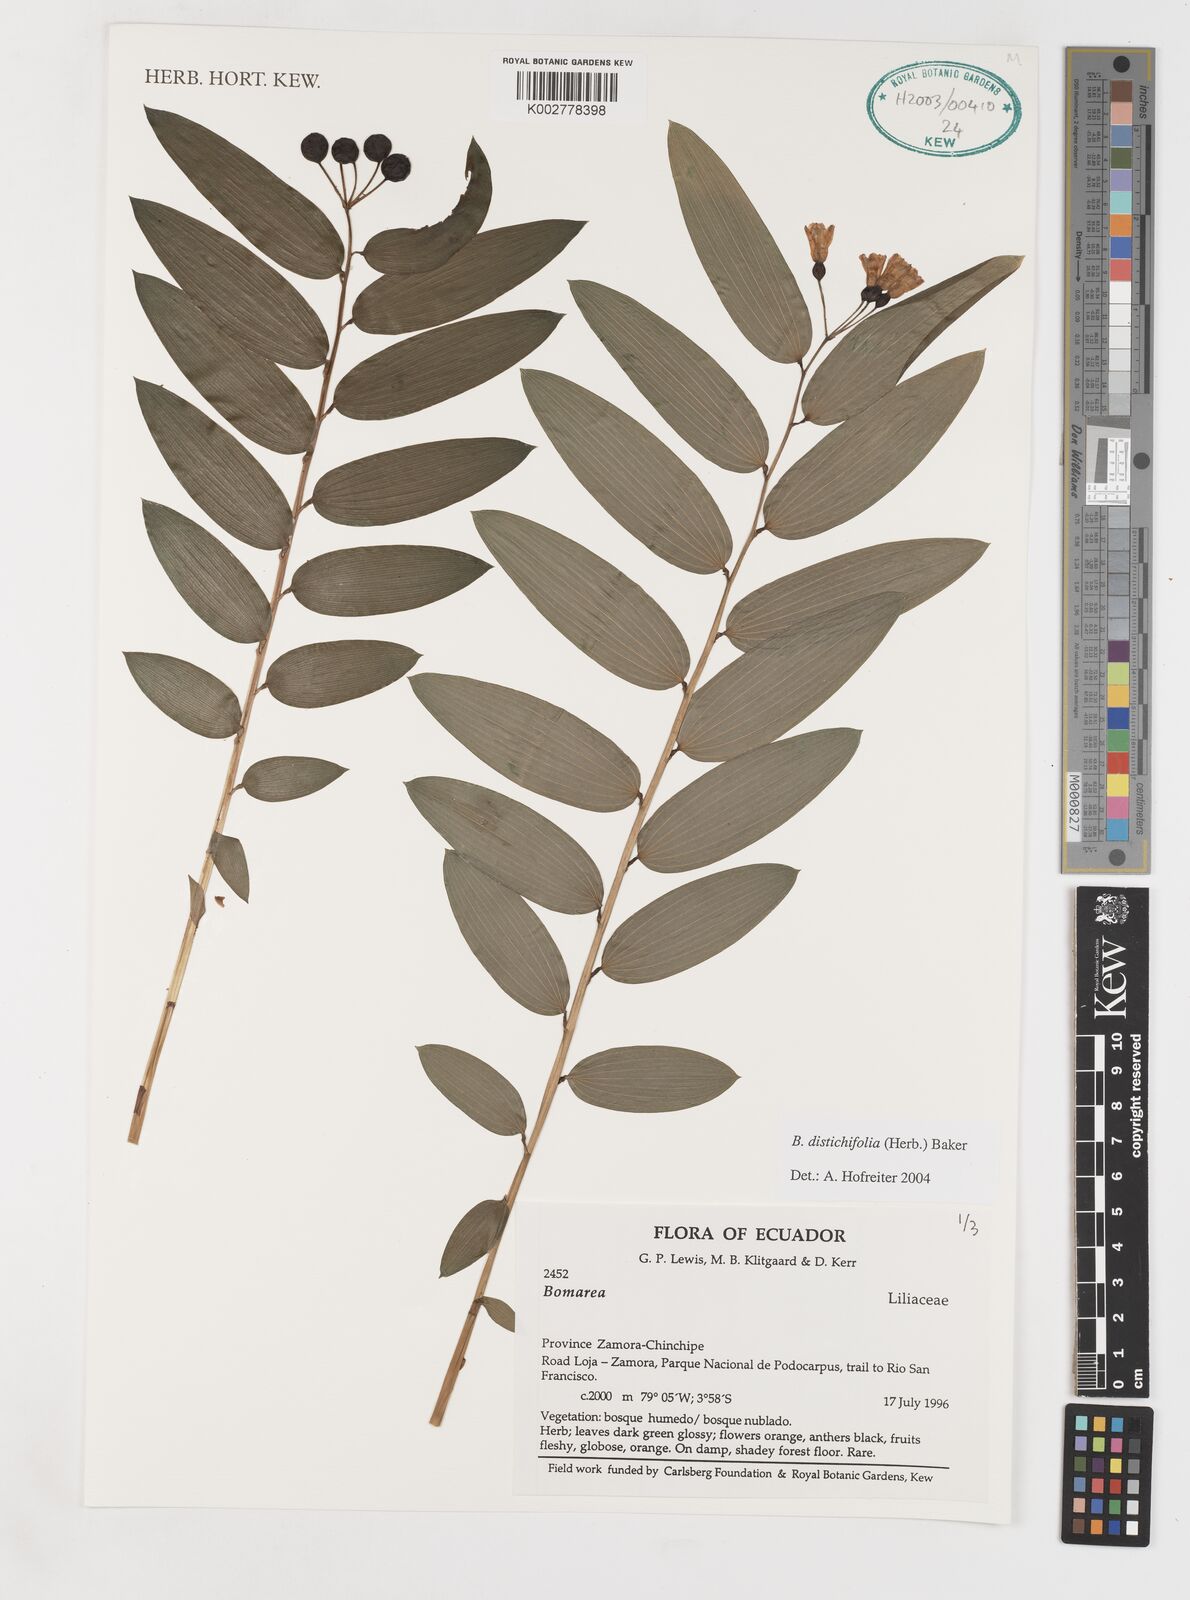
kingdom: Plantae
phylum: Tracheophyta
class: Liliopsida
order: Liliales
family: Alstroemeriaceae
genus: Bomarea
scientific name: Bomarea distichifolia
